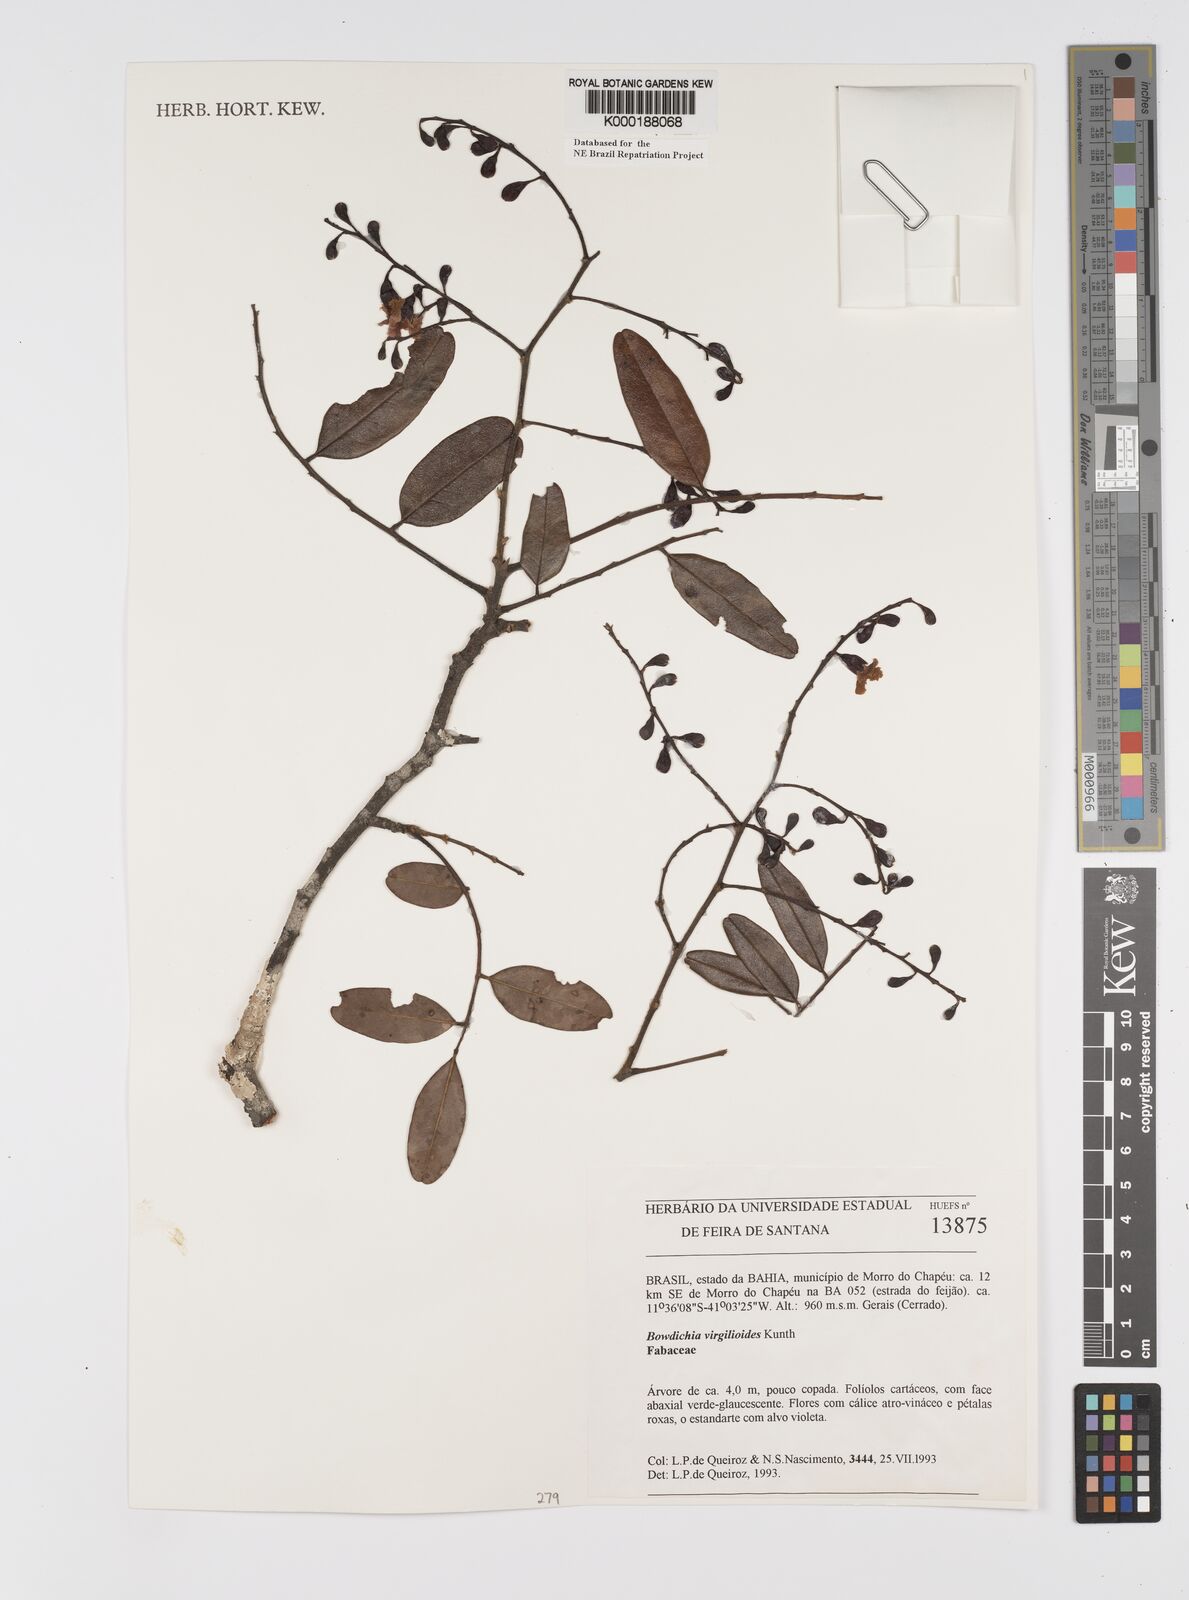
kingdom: Plantae
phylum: Tracheophyta
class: Magnoliopsida
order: Fabales
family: Fabaceae
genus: Bowdichia
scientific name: Bowdichia virgilioides
